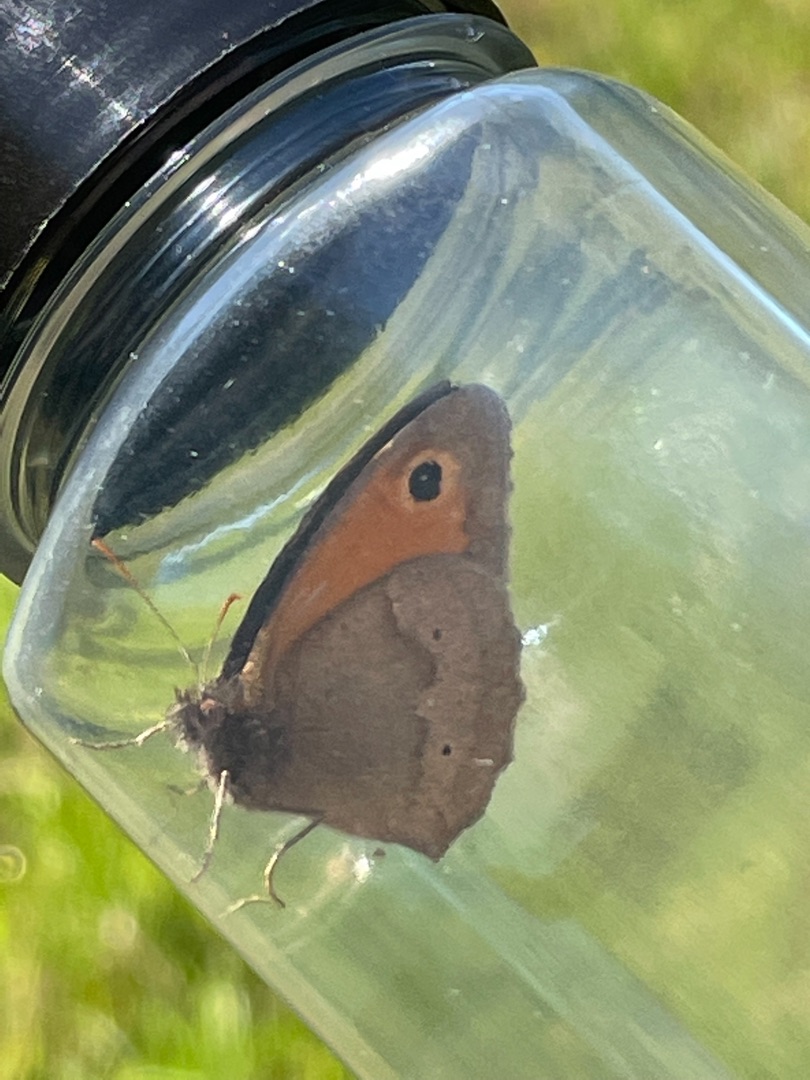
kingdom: Animalia
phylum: Arthropoda
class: Insecta
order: Lepidoptera
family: Nymphalidae
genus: Maniola
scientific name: Maniola jurtina
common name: Græsrandøje
